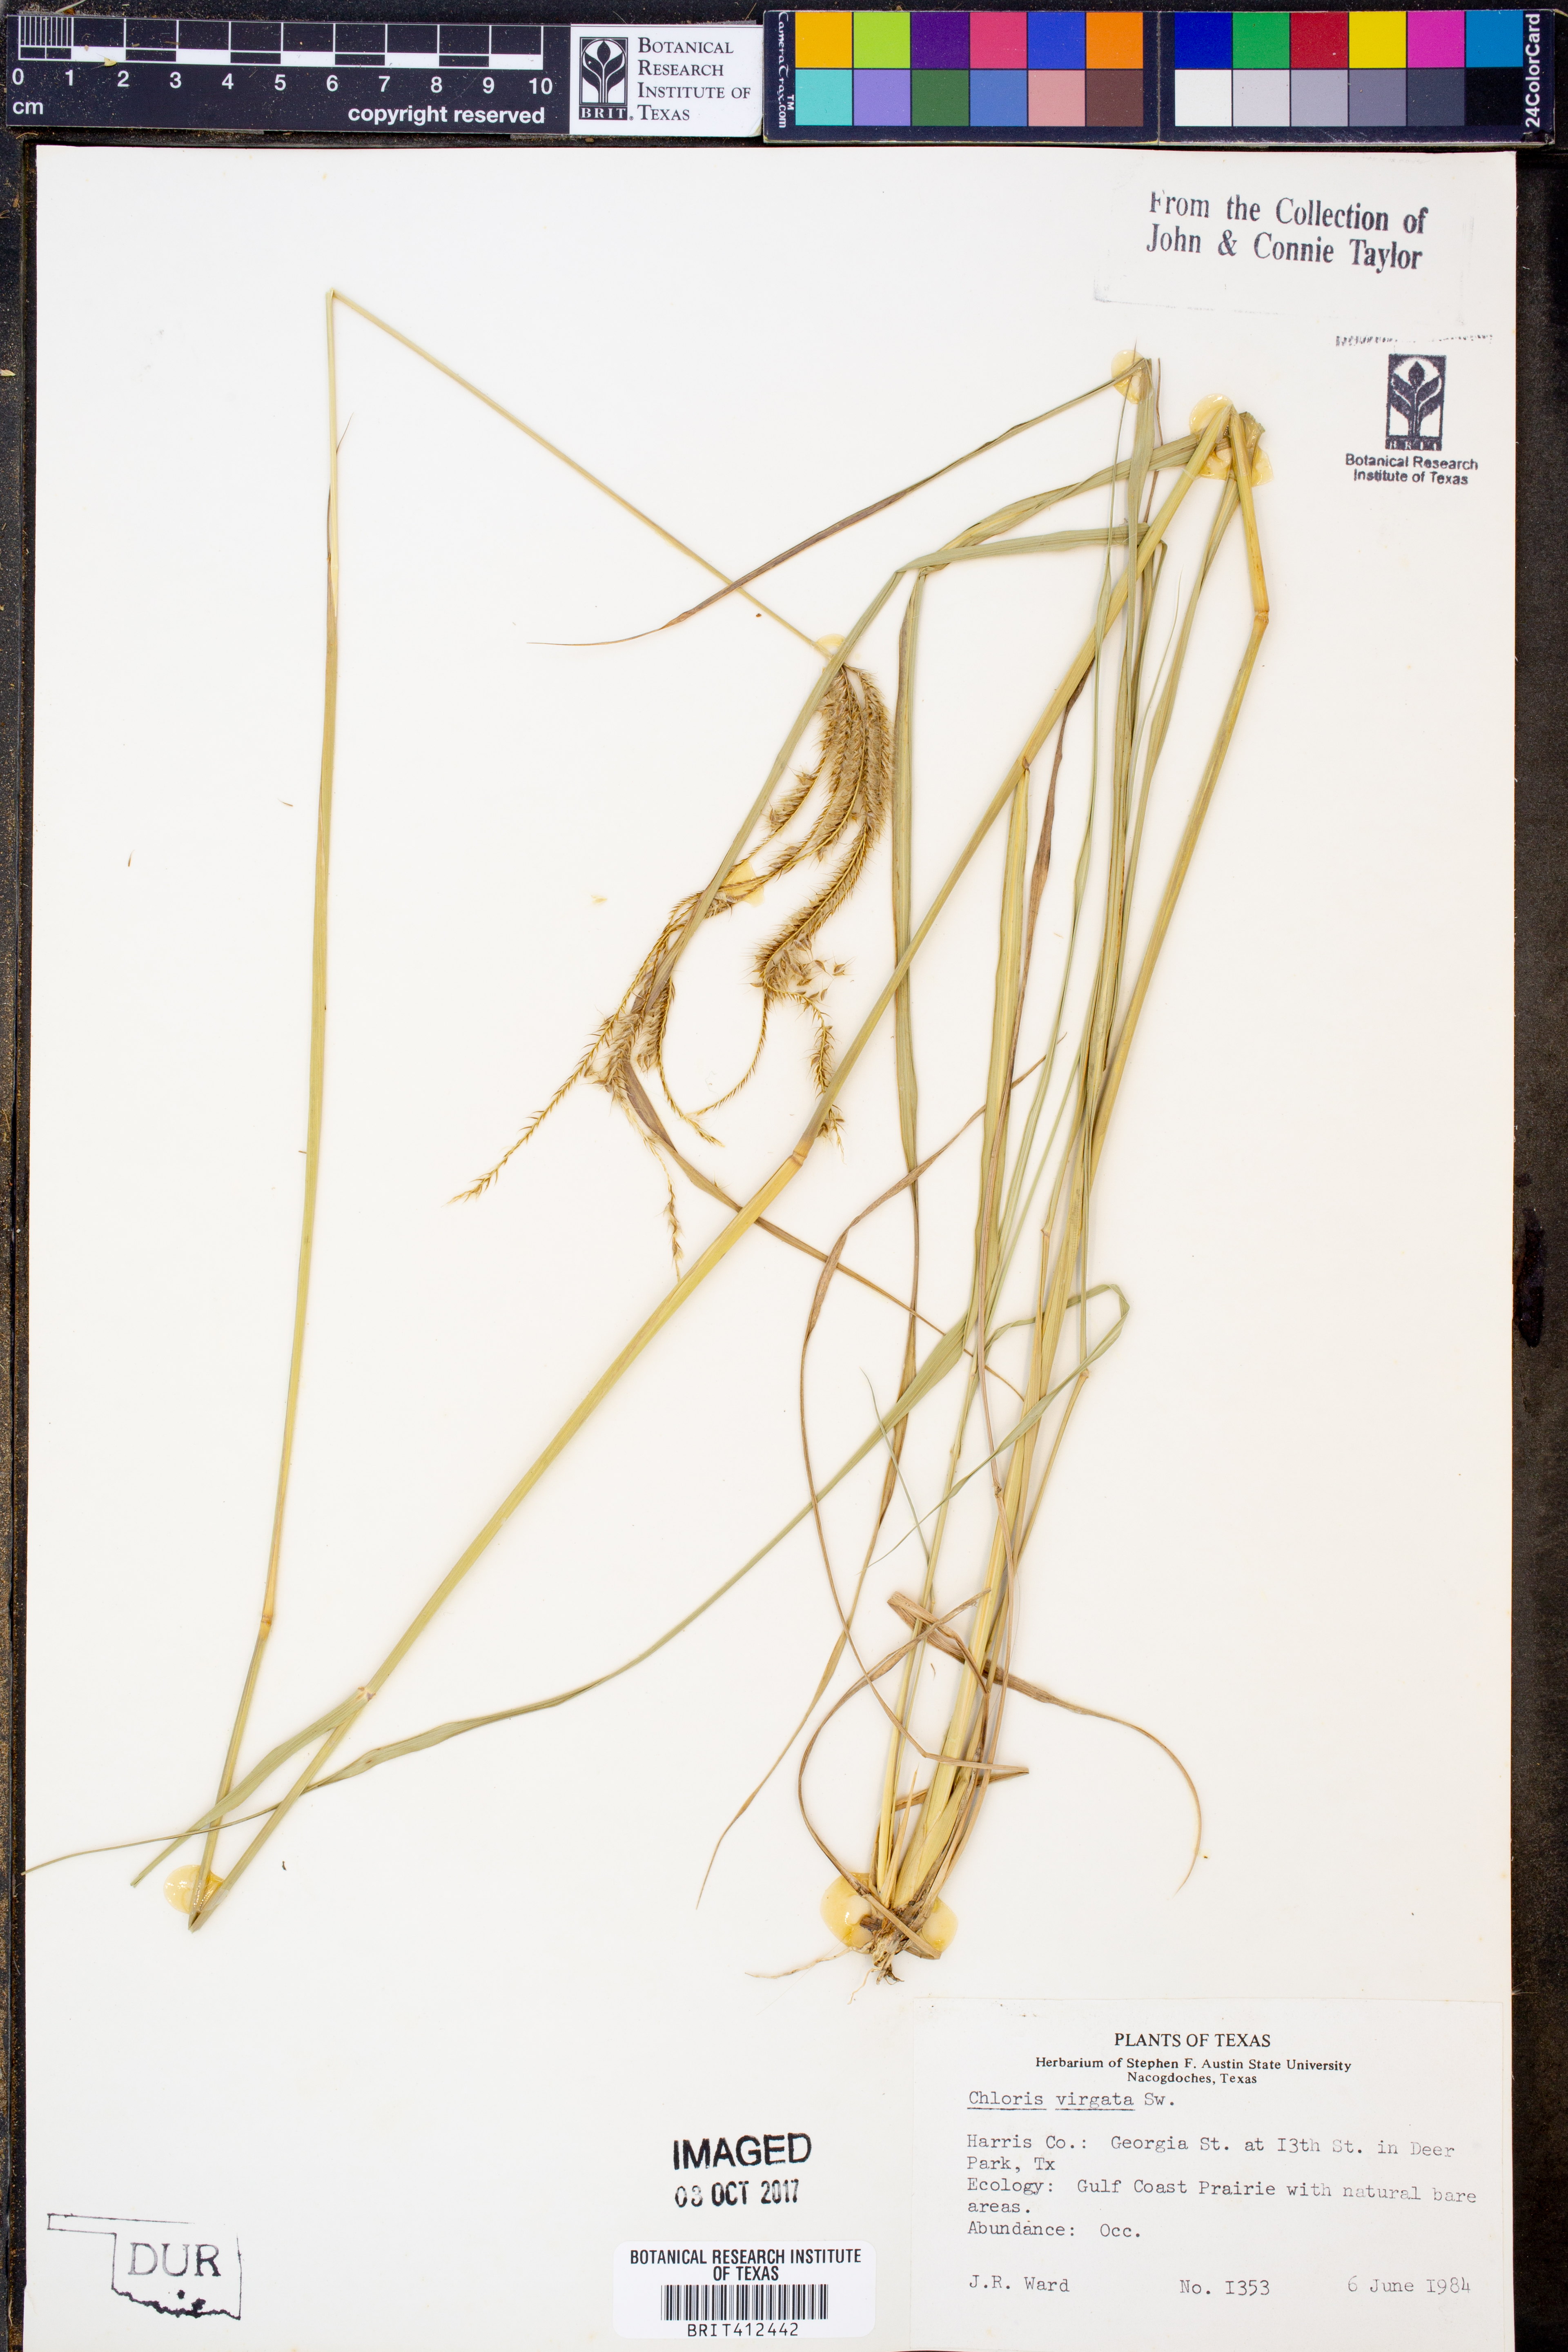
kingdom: Plantae
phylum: Tracheophyta
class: Liliopsida
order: Poales
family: Poaceae
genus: Chloris
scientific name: Chloris virgata
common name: Feathery rhodes-grass
